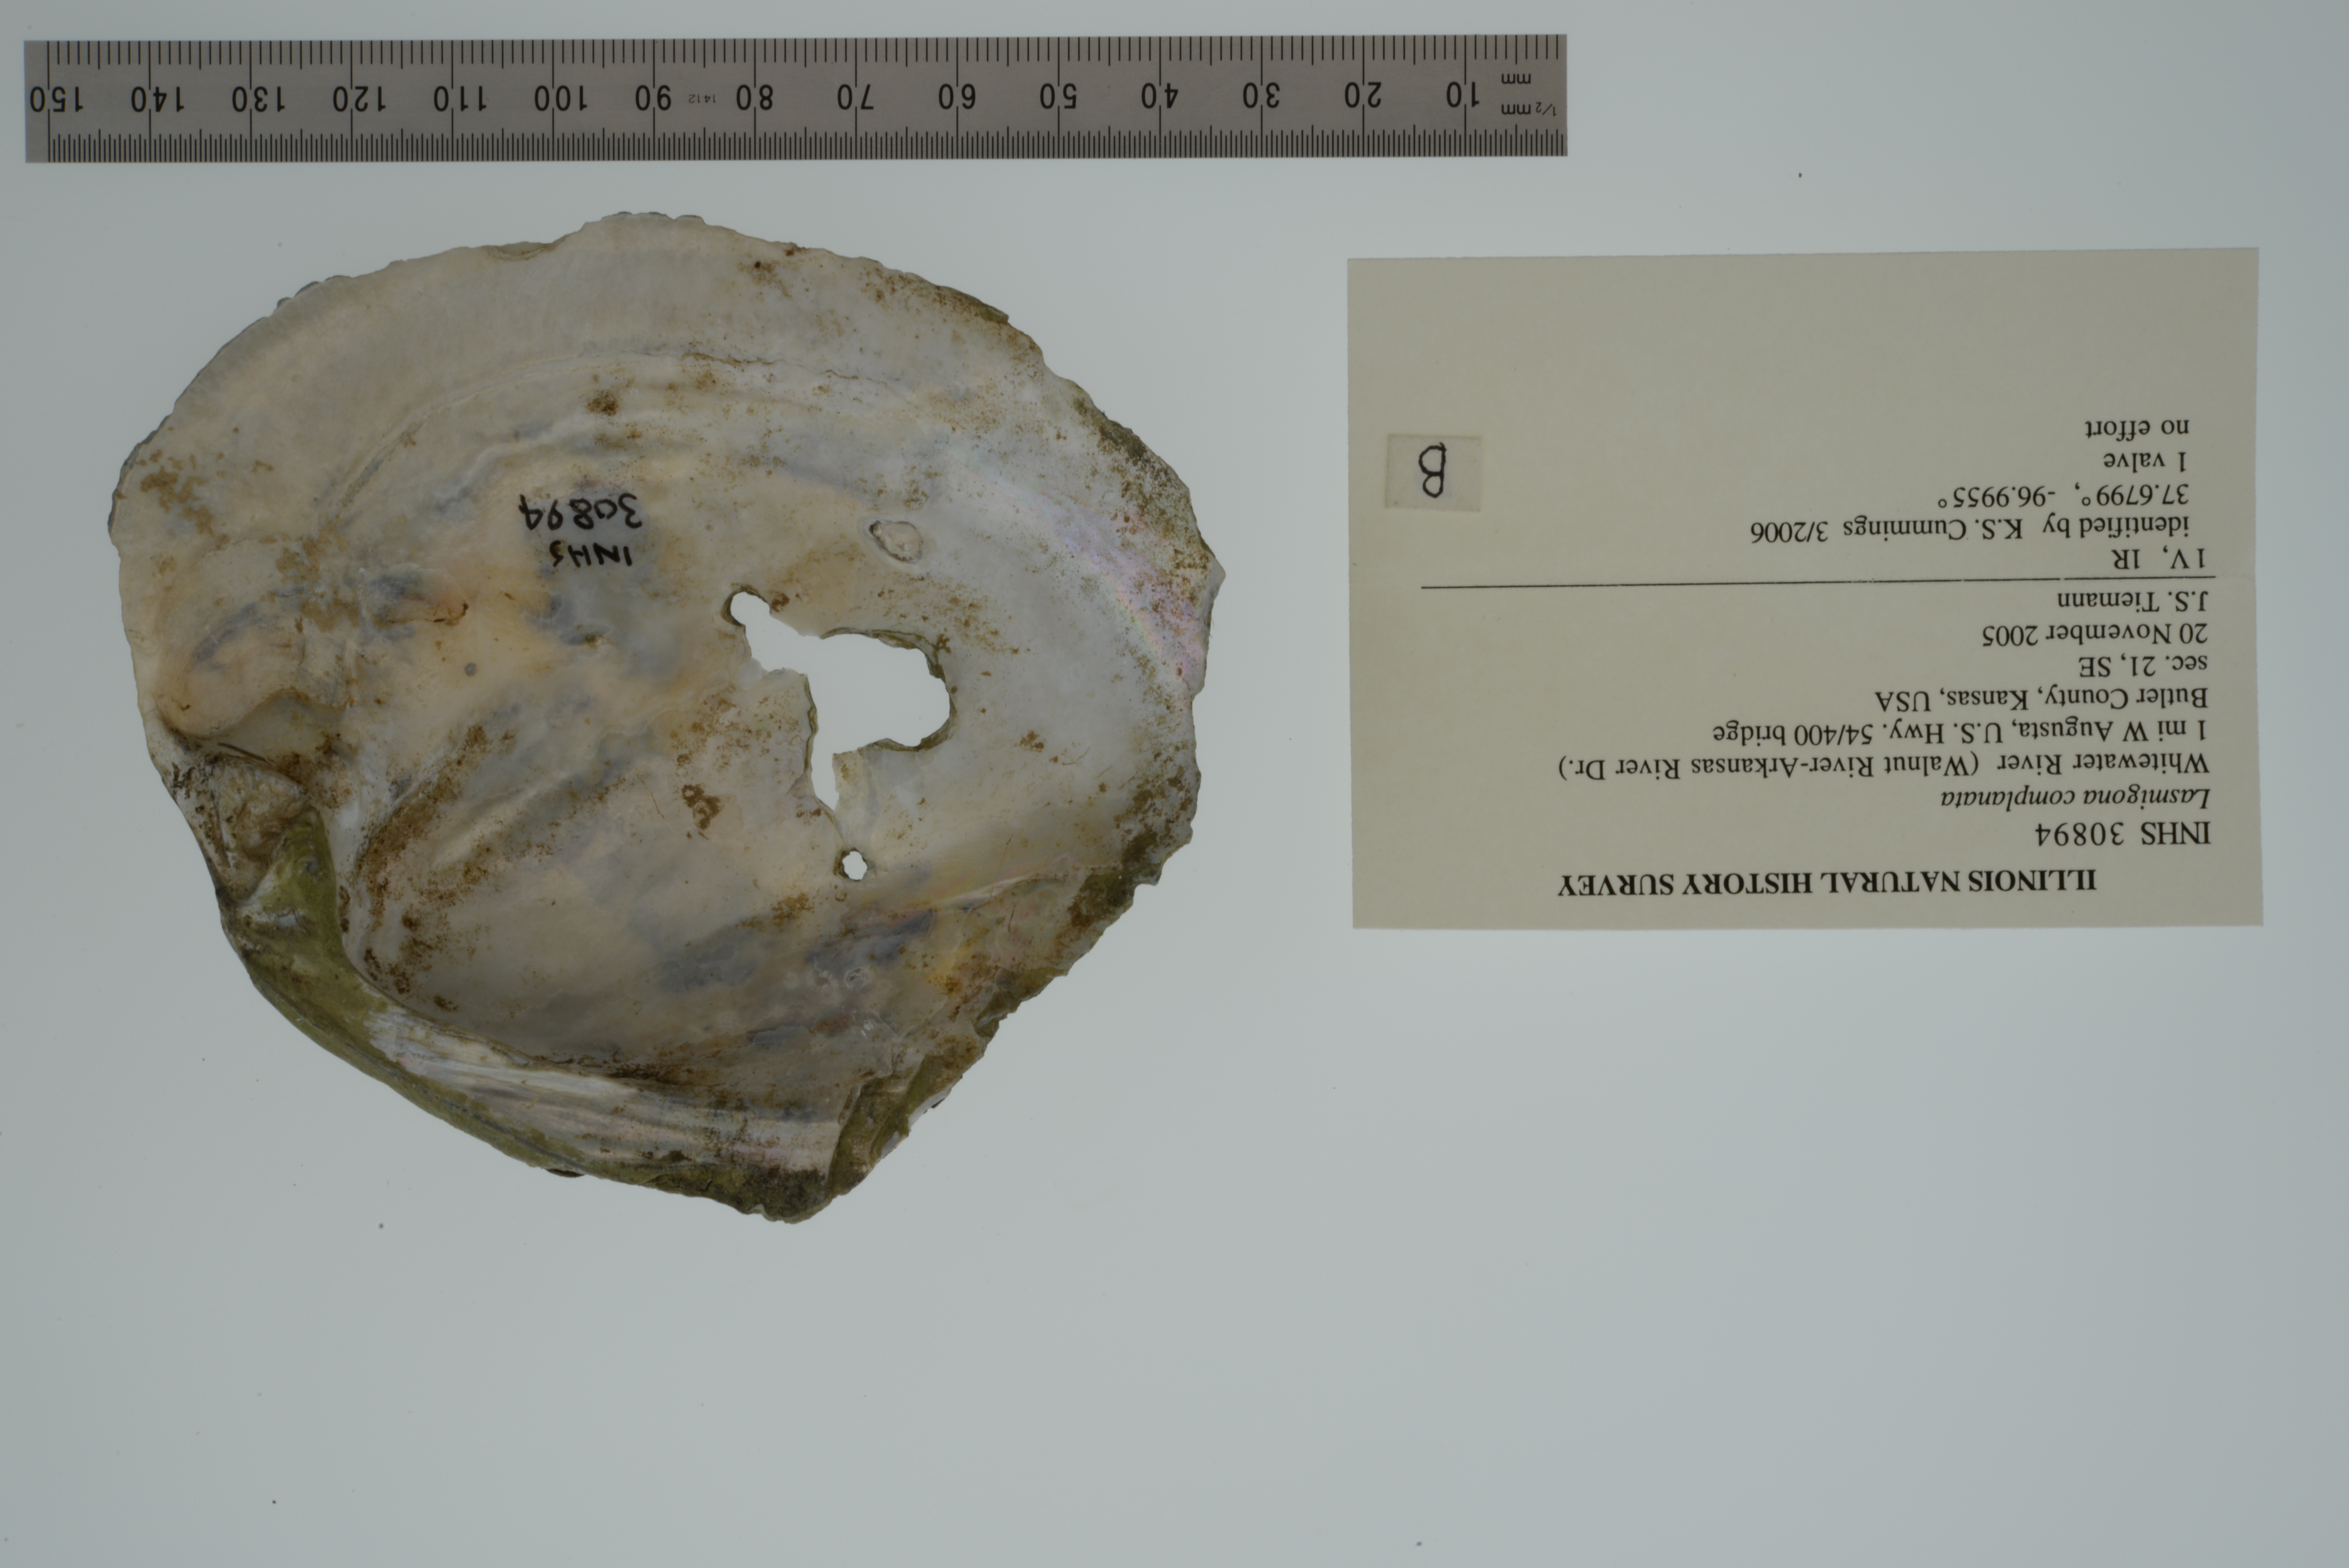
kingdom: Animalia
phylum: Mollusca
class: Bivalvia
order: Unionida
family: Unionidae
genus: Lasmigona
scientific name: Lasmigona complanata
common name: White heelsplitter
